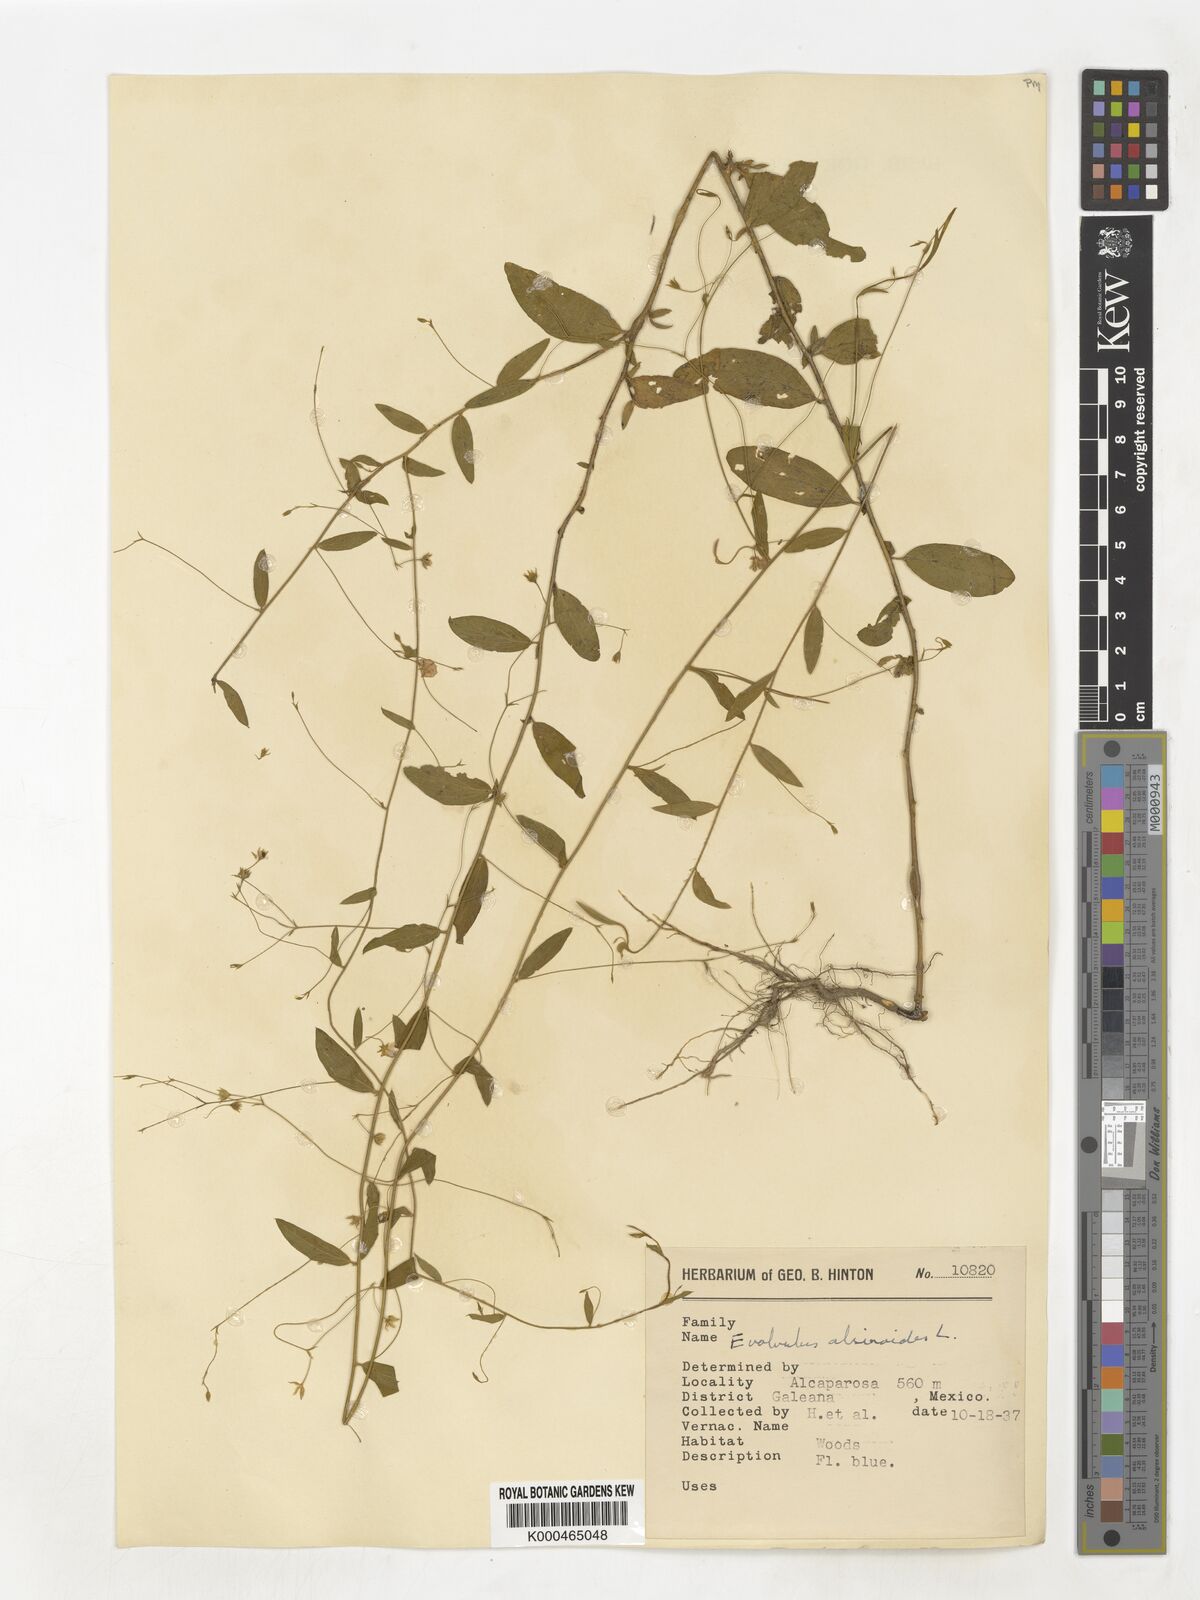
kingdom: Plantae
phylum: Tracheophyta
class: Magnoliopsida
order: Solanales
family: Convolvulaceae
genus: Evolvulus
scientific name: Evolvulus alsinoides
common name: Slender dwarf morning-glory
